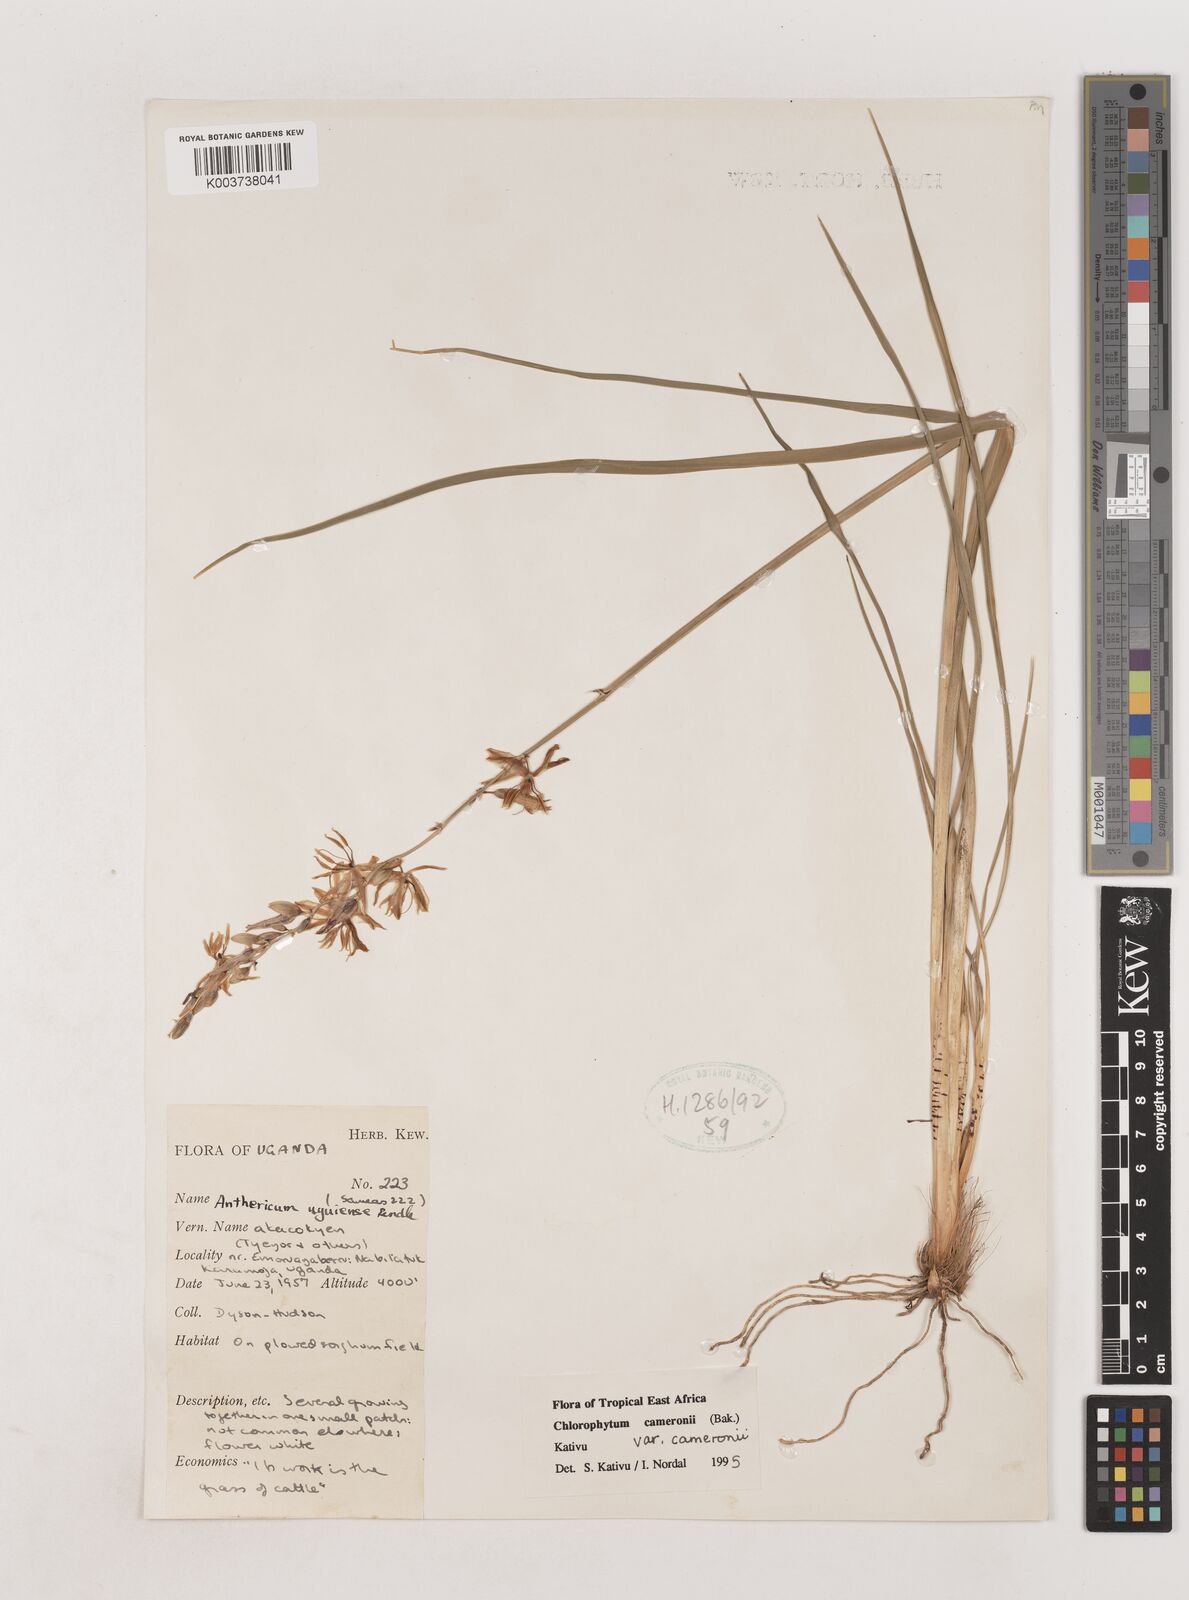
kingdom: Plantae
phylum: Tracheophyta
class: Liliopsida
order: Asparagales
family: Asparagaceae
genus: Chlorophytum
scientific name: Chlorophytum cameronii
